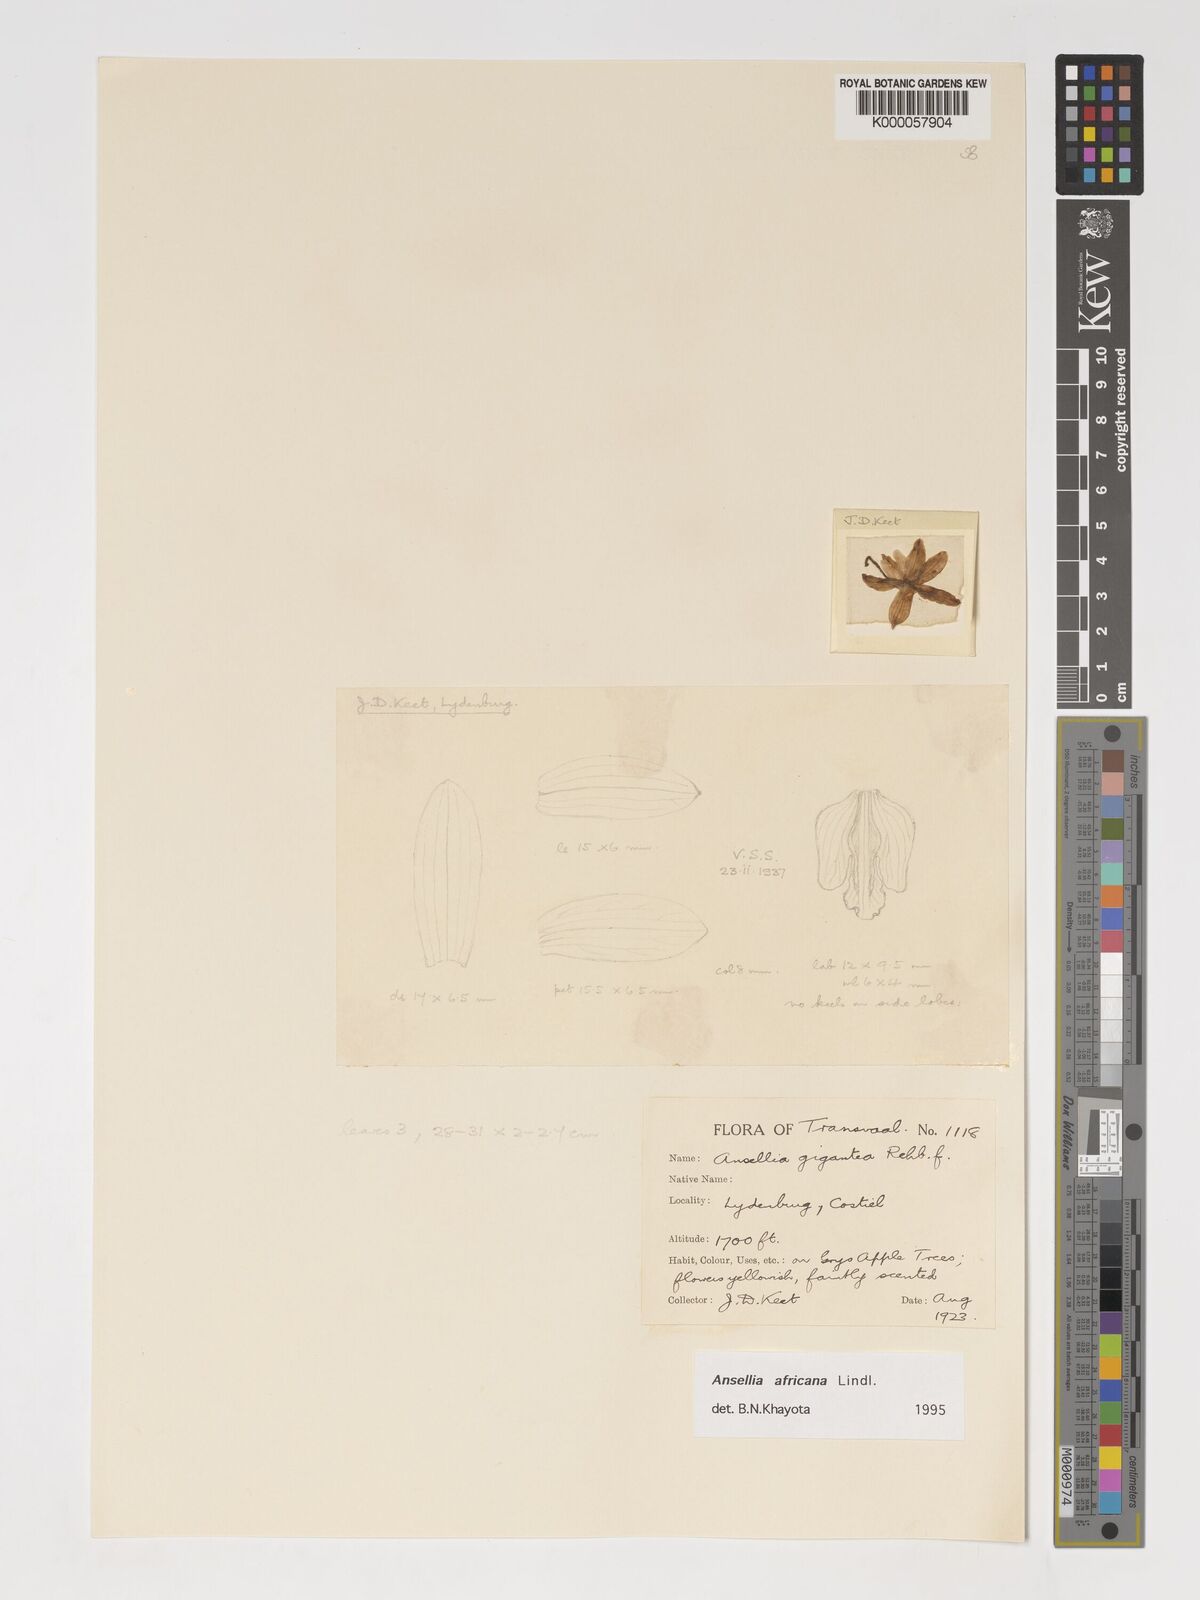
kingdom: Plantae
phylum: Tracheophyta
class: Liliopsida
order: Asparagales
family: Orchidaceae
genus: Ansellia
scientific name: Ansellia africana
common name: African ansellia
